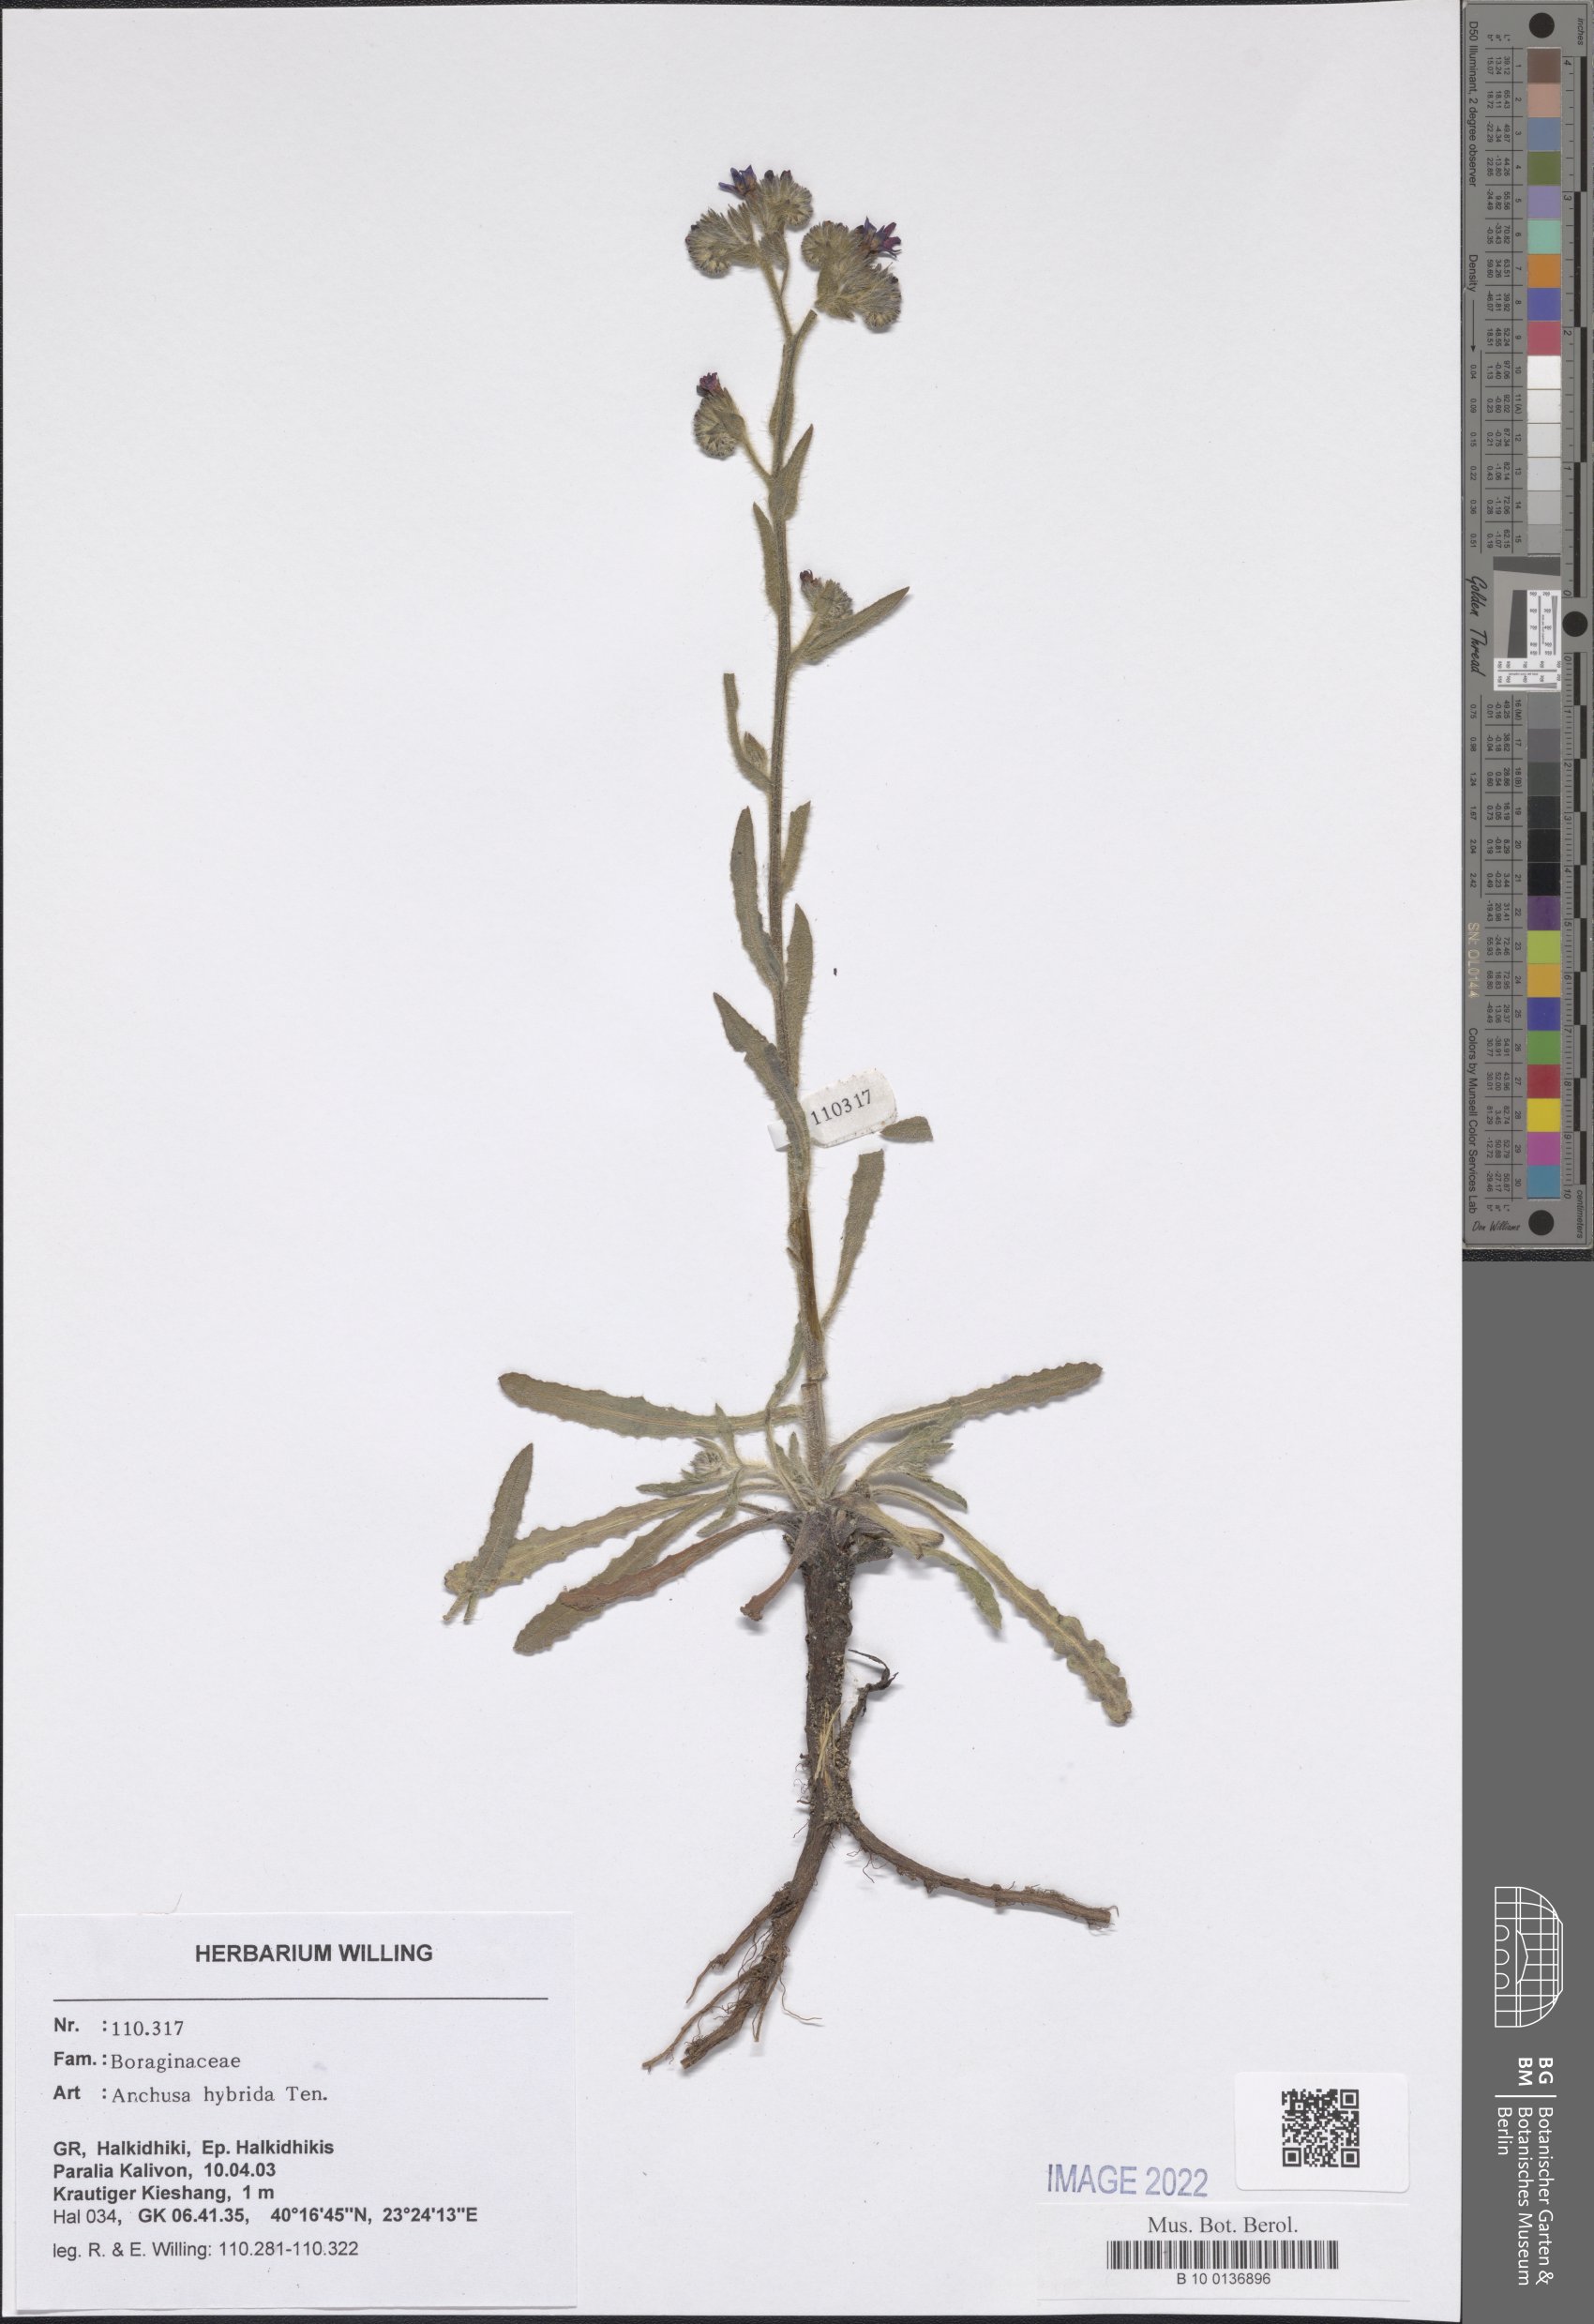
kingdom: Plantae
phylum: Tracheophyta
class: Magnoliopsida
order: Boraginales
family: Boraginaceae
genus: Anchusa
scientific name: Anchusa hybrida
